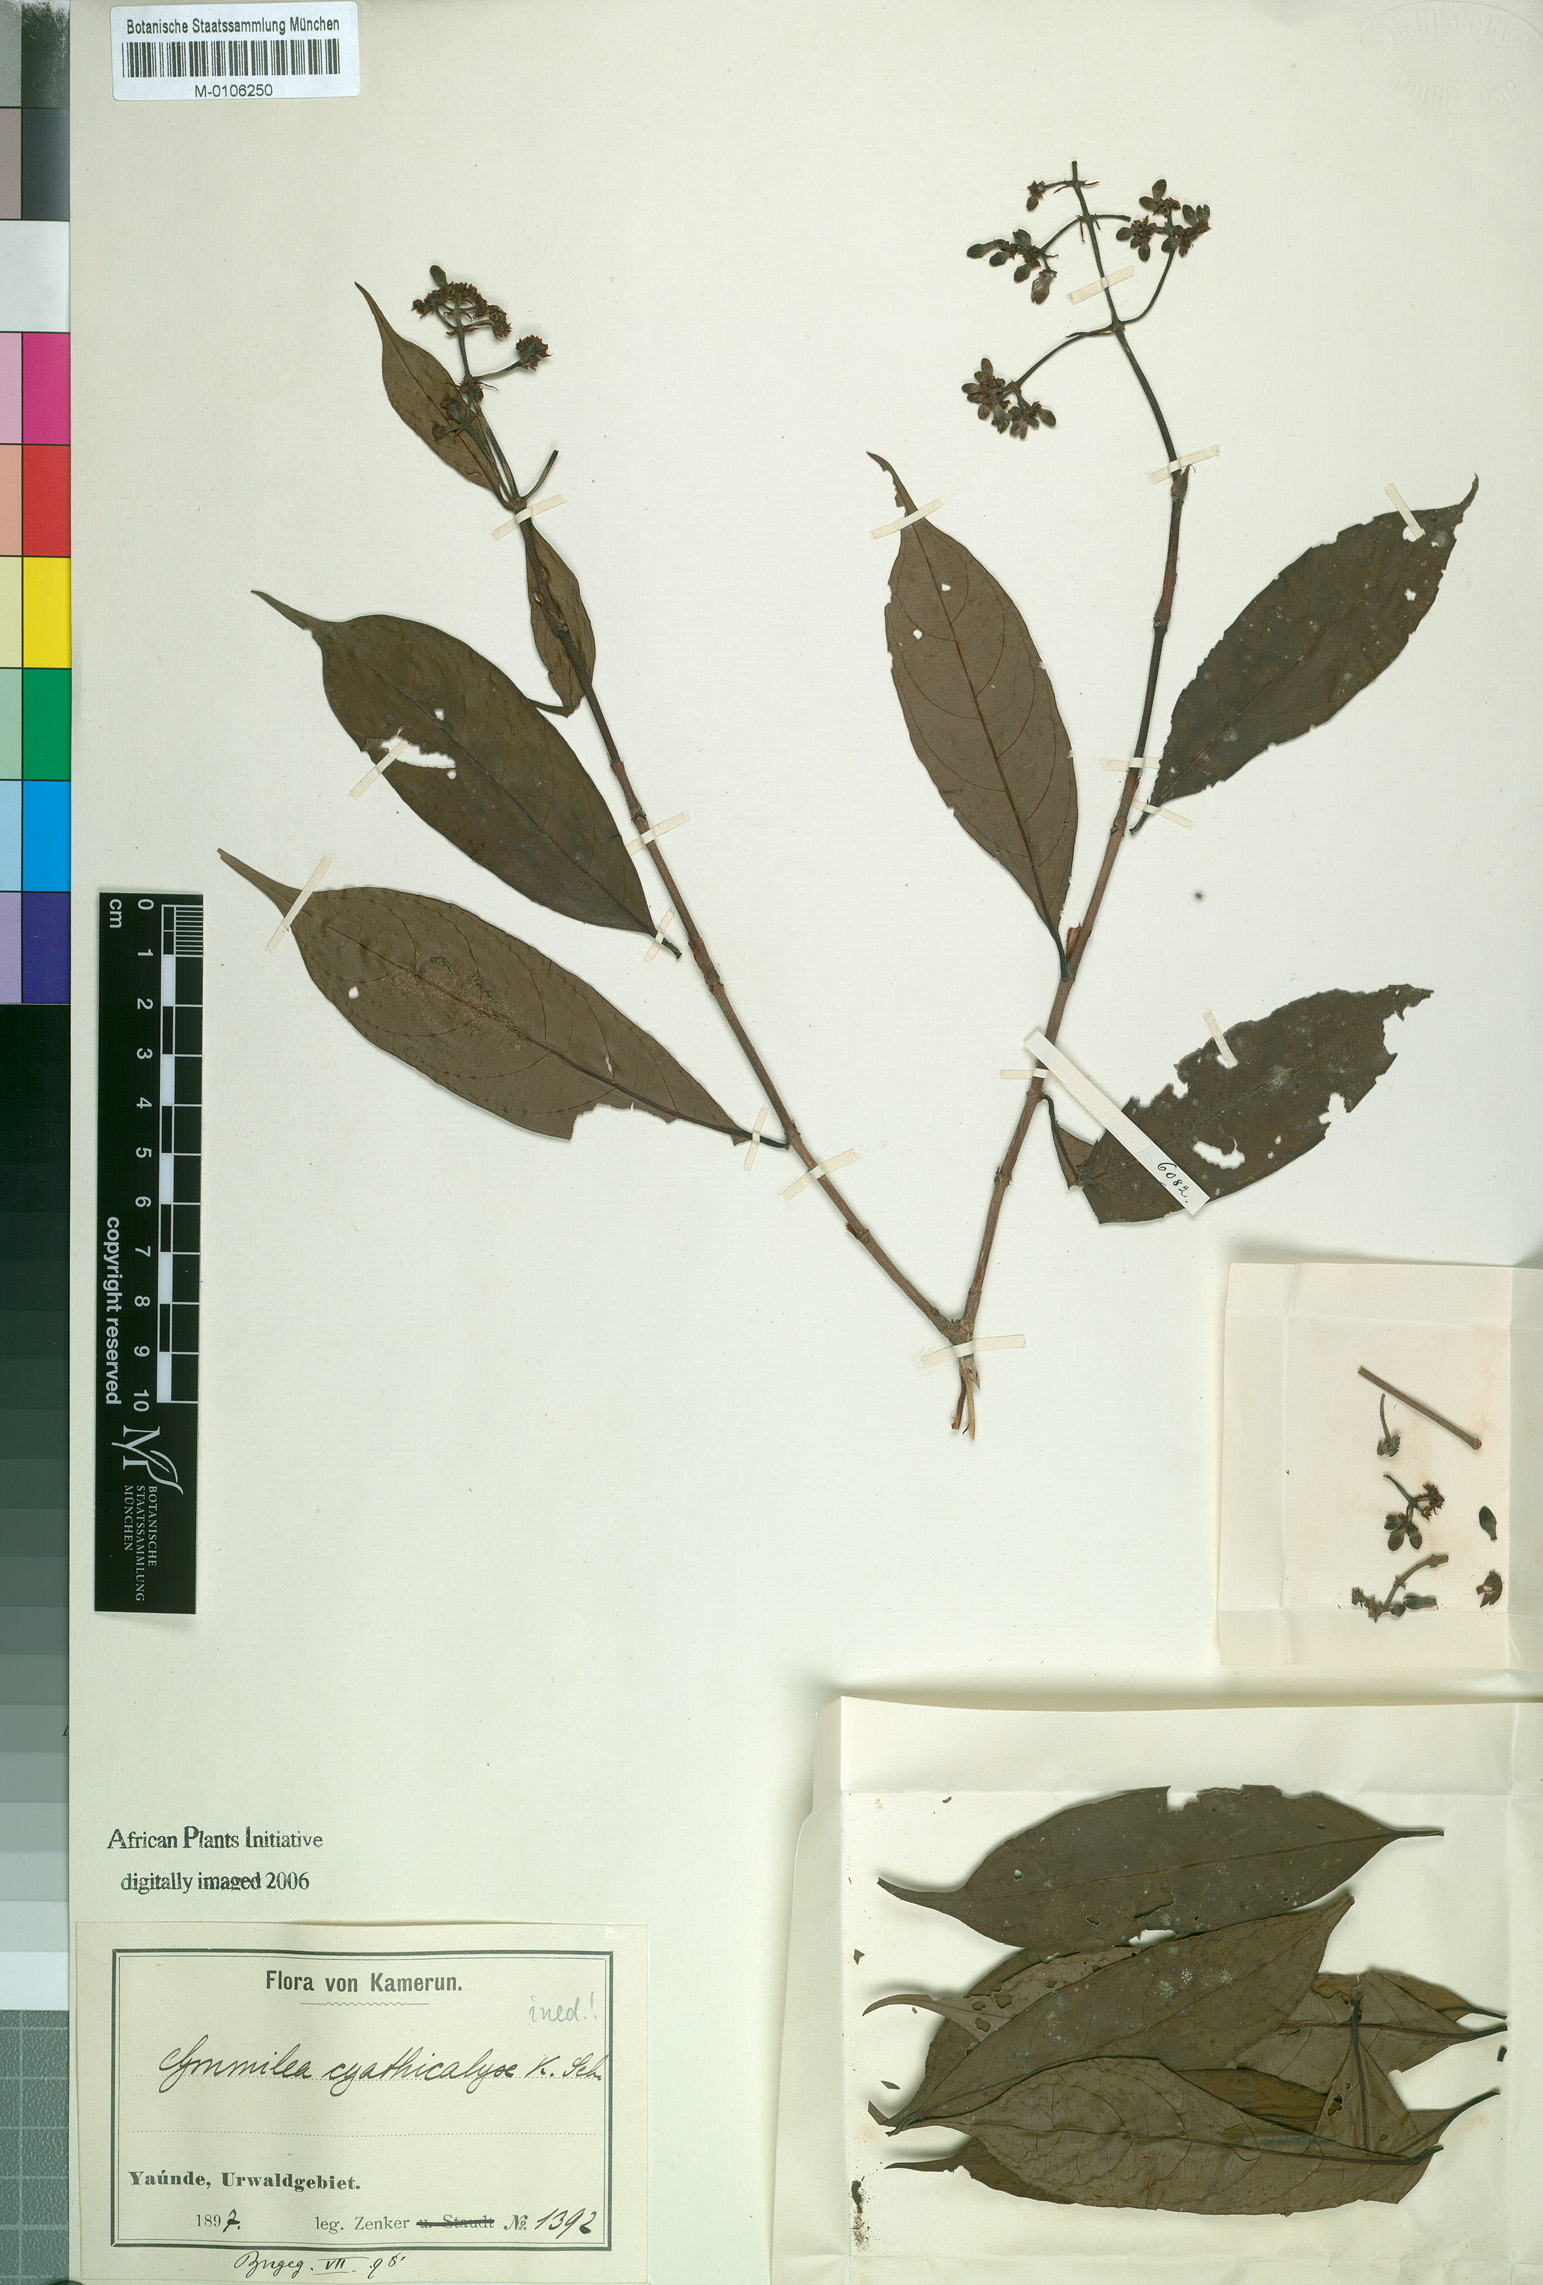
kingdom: Plantae
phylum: Tracheophyta
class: Magnoliopsida
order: Gentianales
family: Rubiaceae
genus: Psychotria
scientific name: Psychotria
